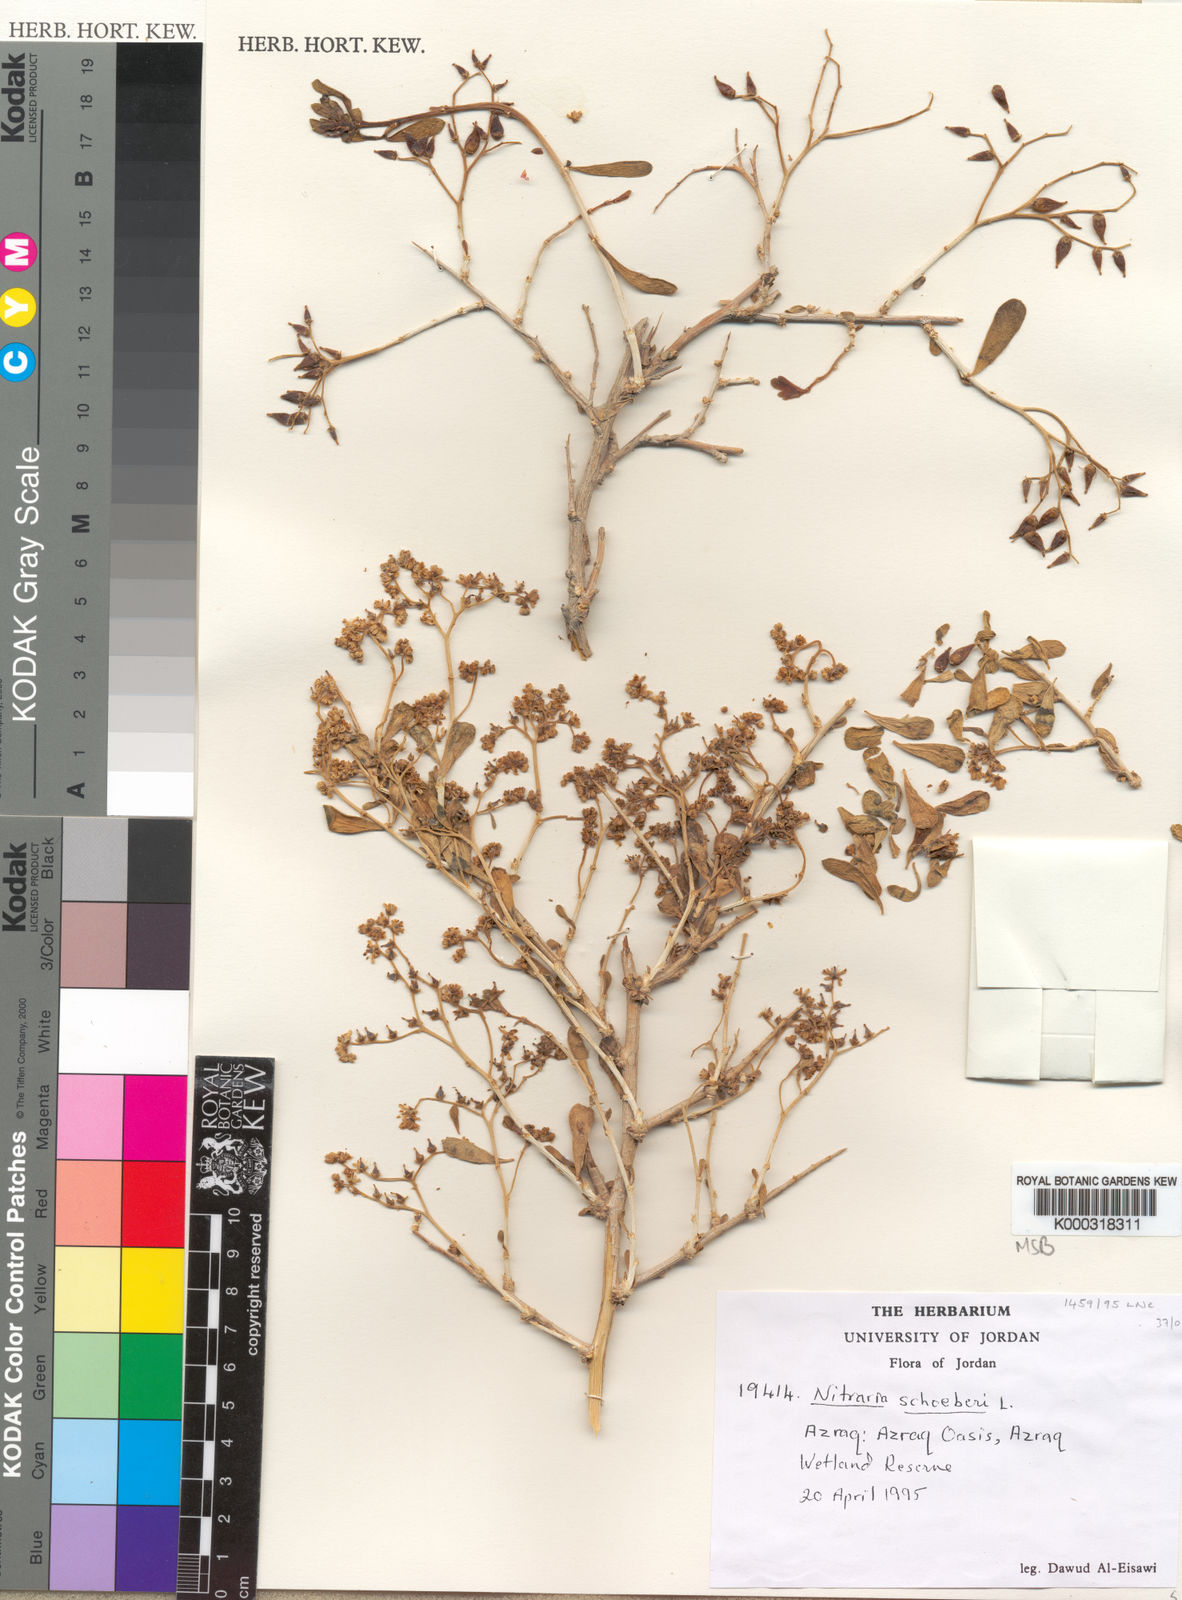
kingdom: Plantae
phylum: Tracheophyta
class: Magnoliopsida
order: Sapindales
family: Nitrariaceae
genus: Nitraria
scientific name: Nitraria schoberi
